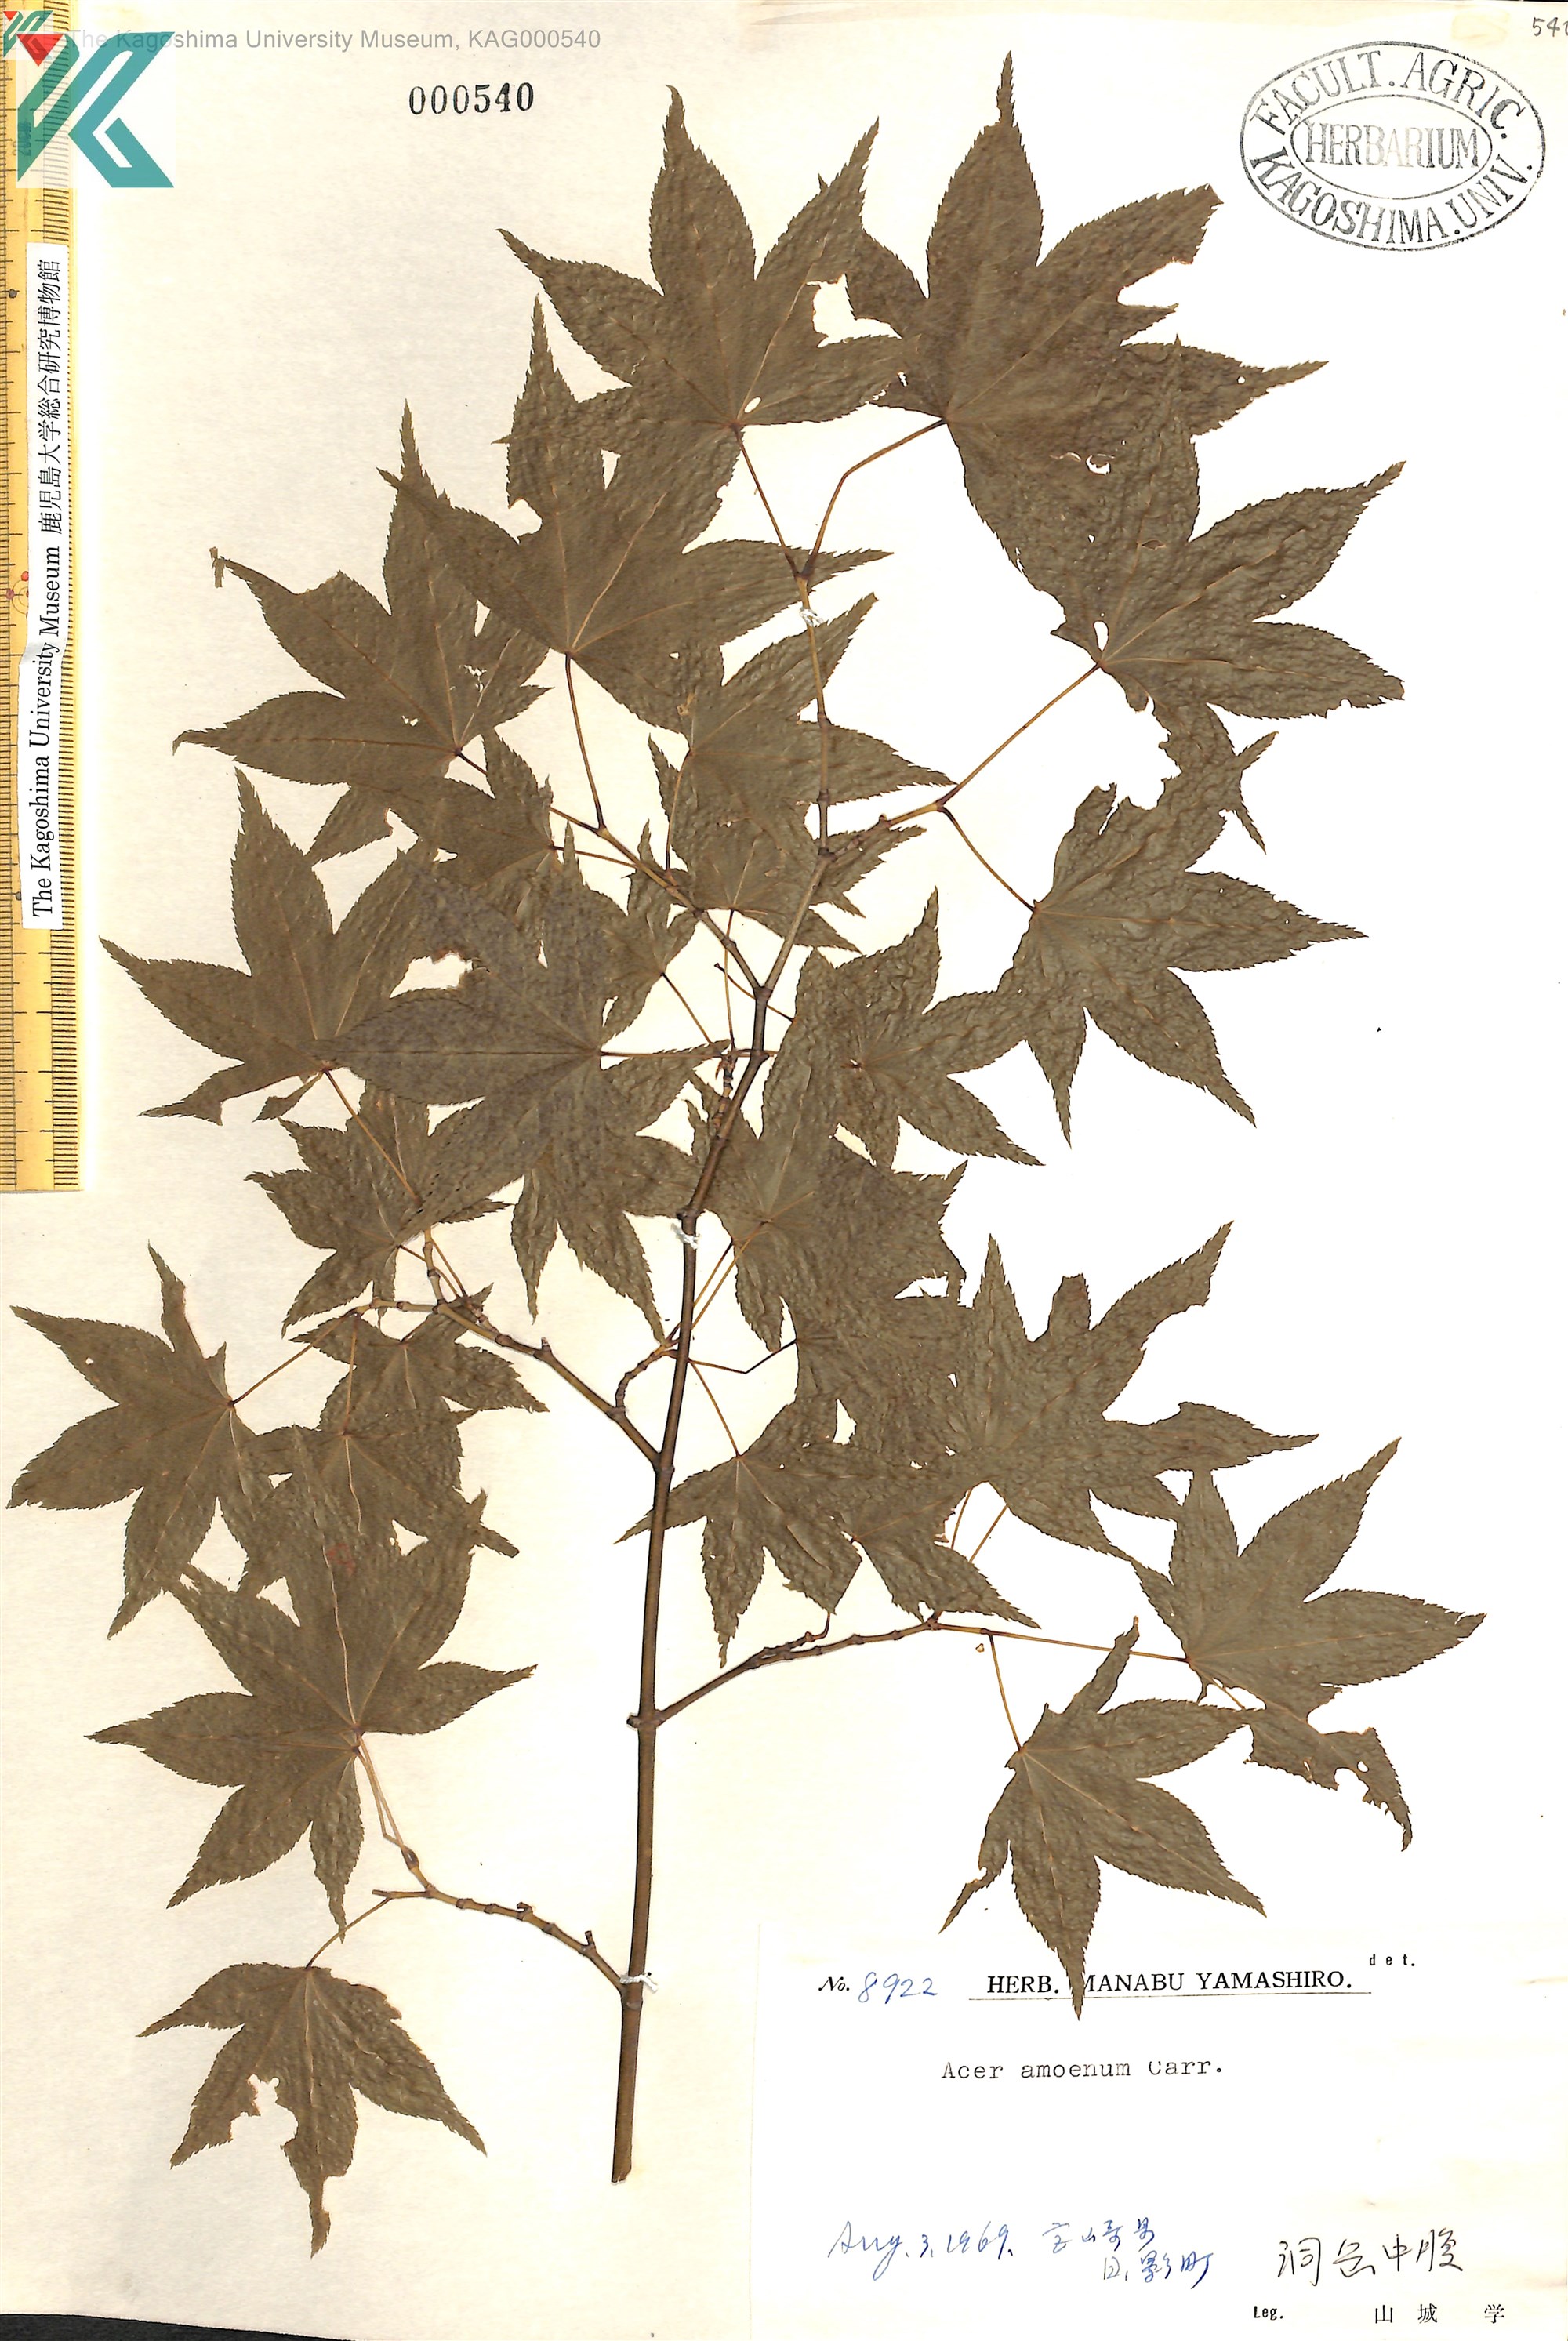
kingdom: Plantae
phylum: Tracheophyta
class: Magnoliopsida
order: Sapindales
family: Sapindaceae
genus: Acer
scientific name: Acer palmatum
